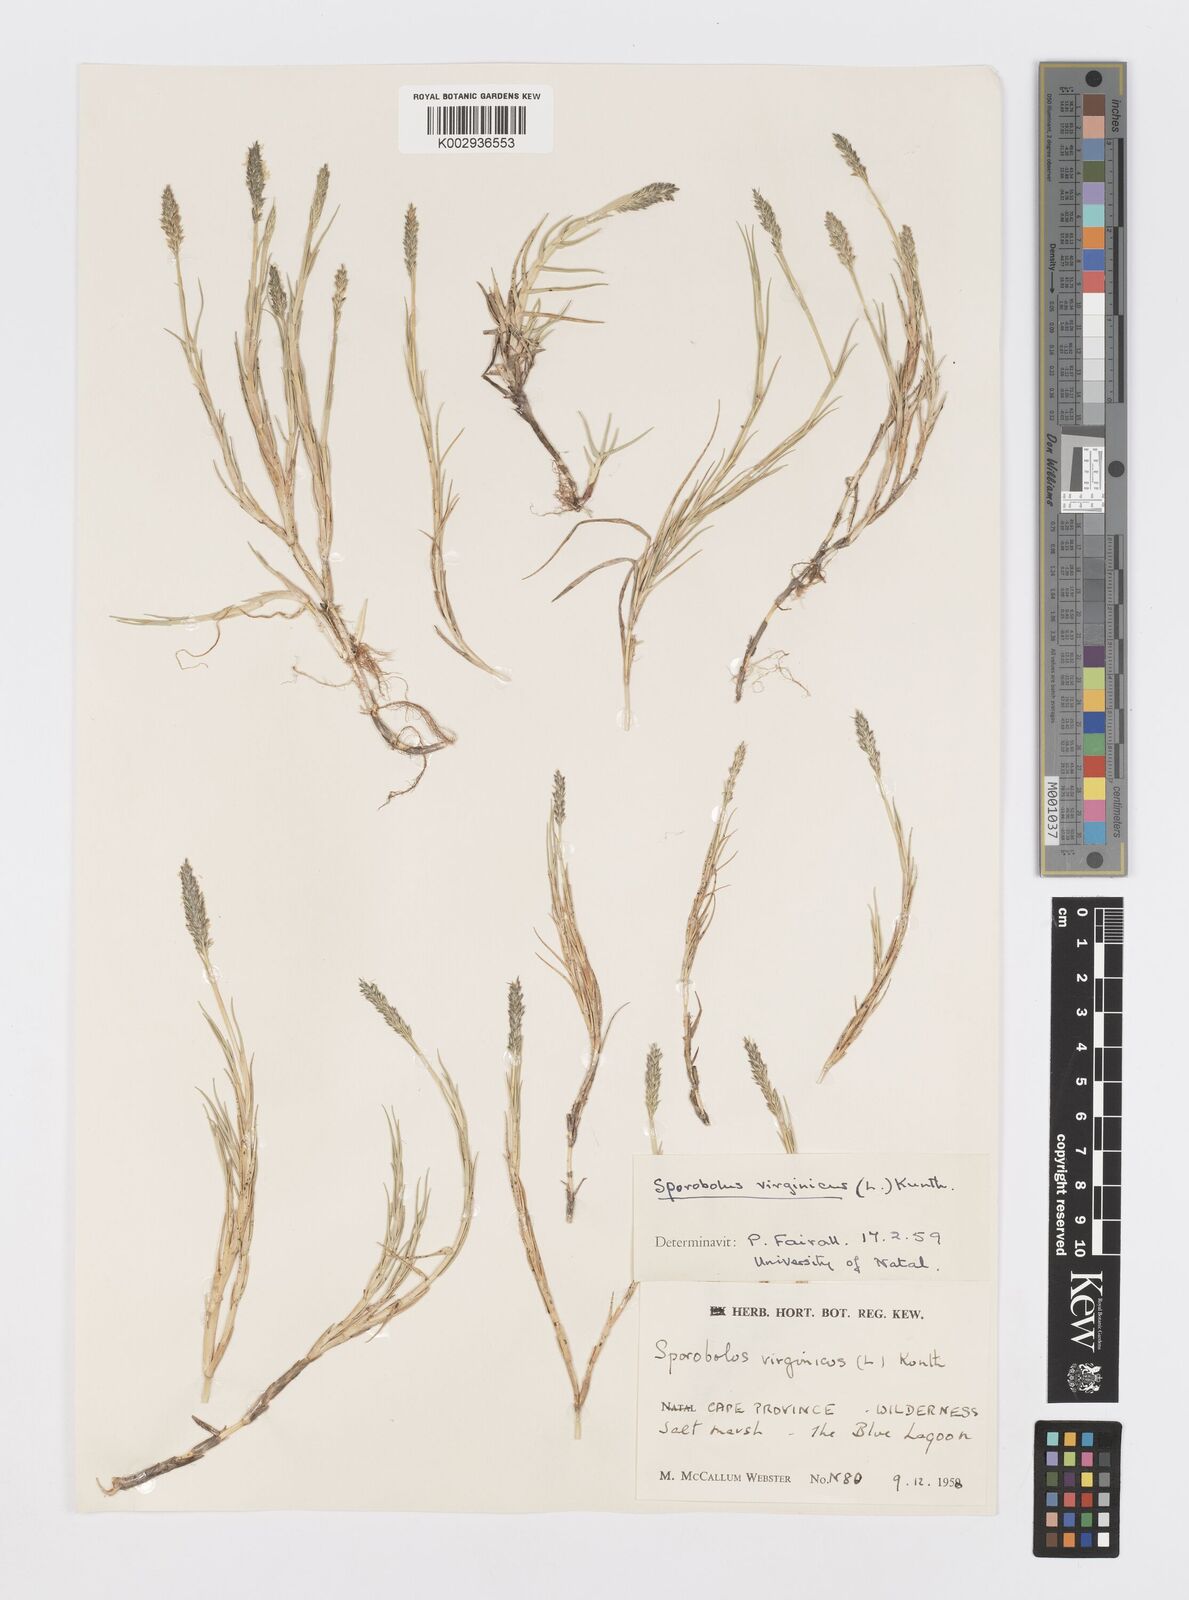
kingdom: Plantae
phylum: Tracheophyta
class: Liliopsida
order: Poales
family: Poaceae
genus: Sporobolus
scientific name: Sporobolus virginicus
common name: Beach dropseed
